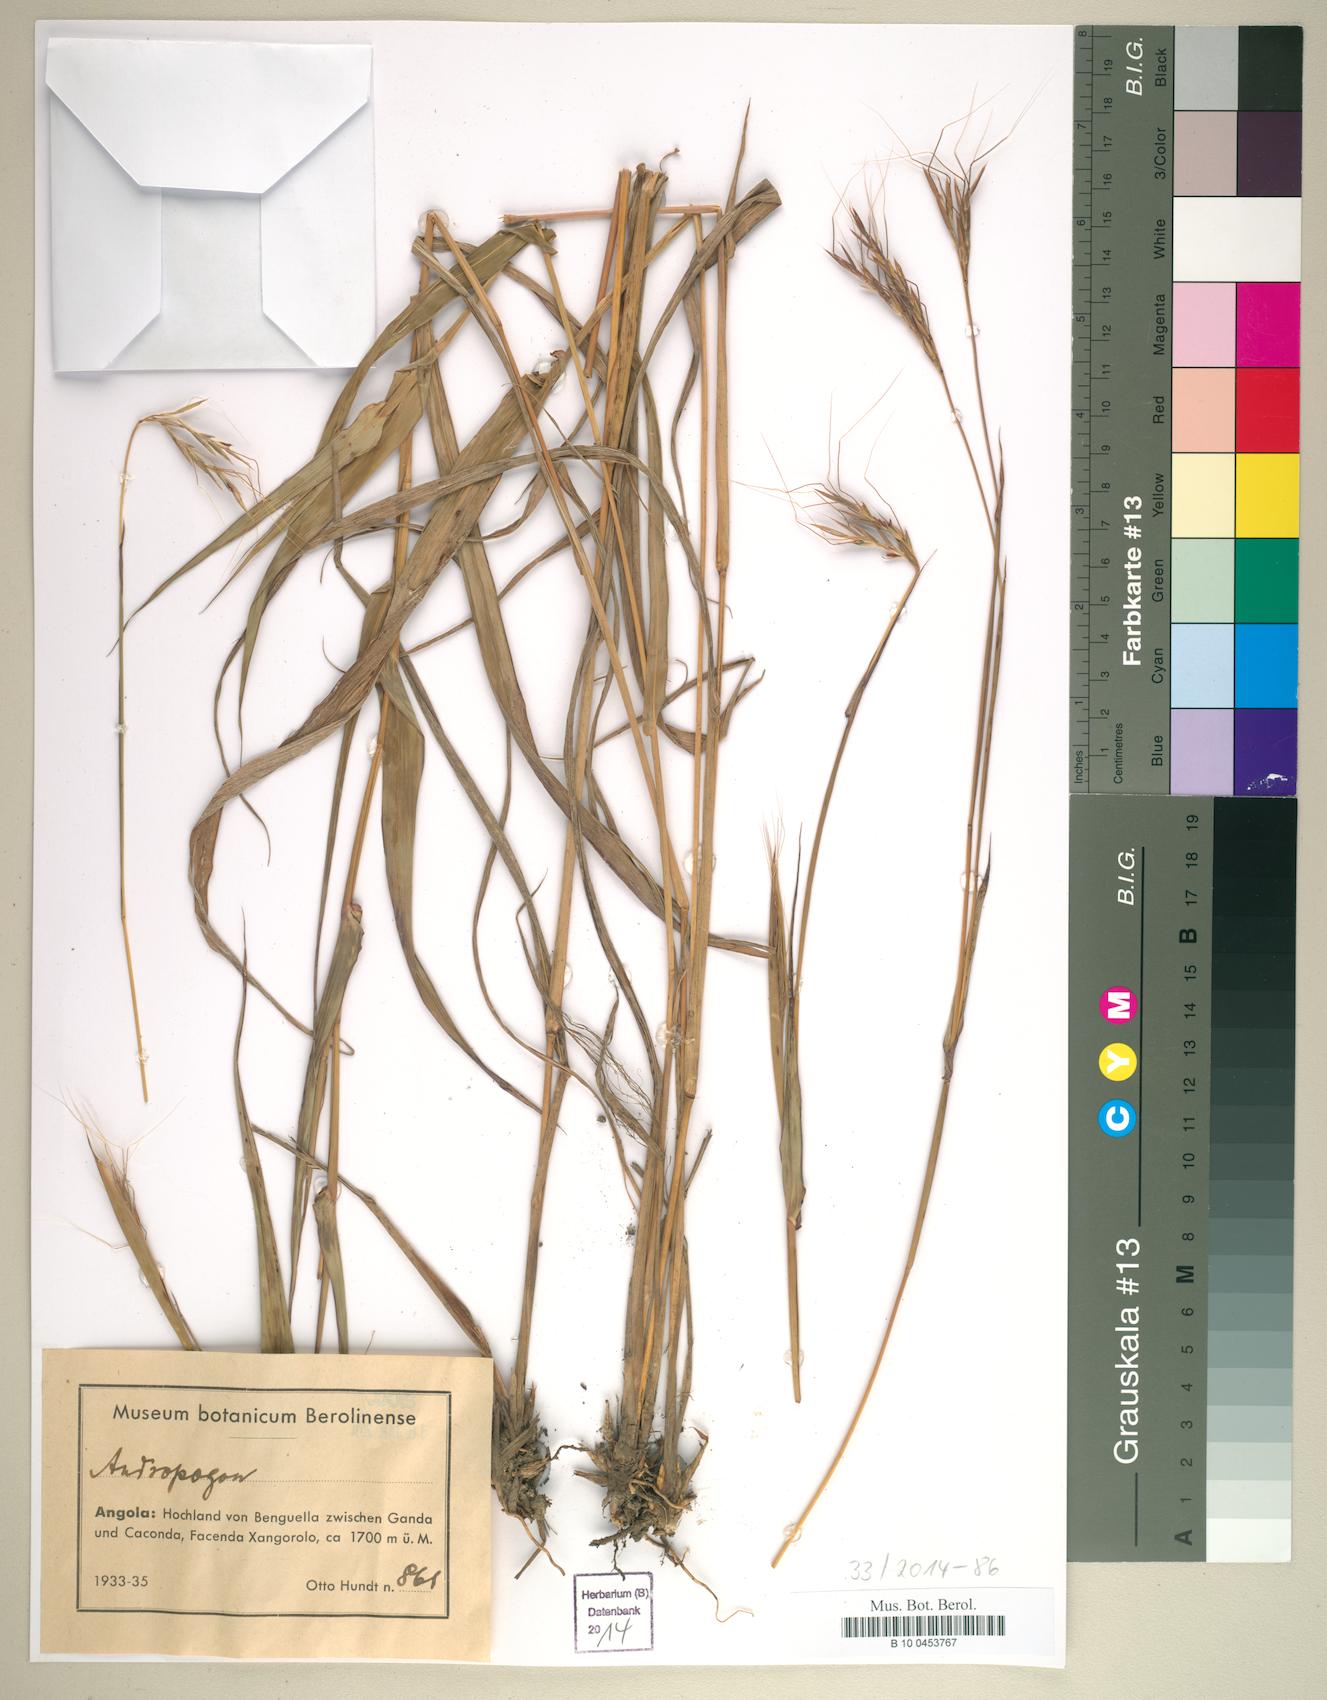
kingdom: Plantae
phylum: Tracheophyta
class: Liliopsida
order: Poales
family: Poaceae
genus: Andropogon
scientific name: Andropogon
